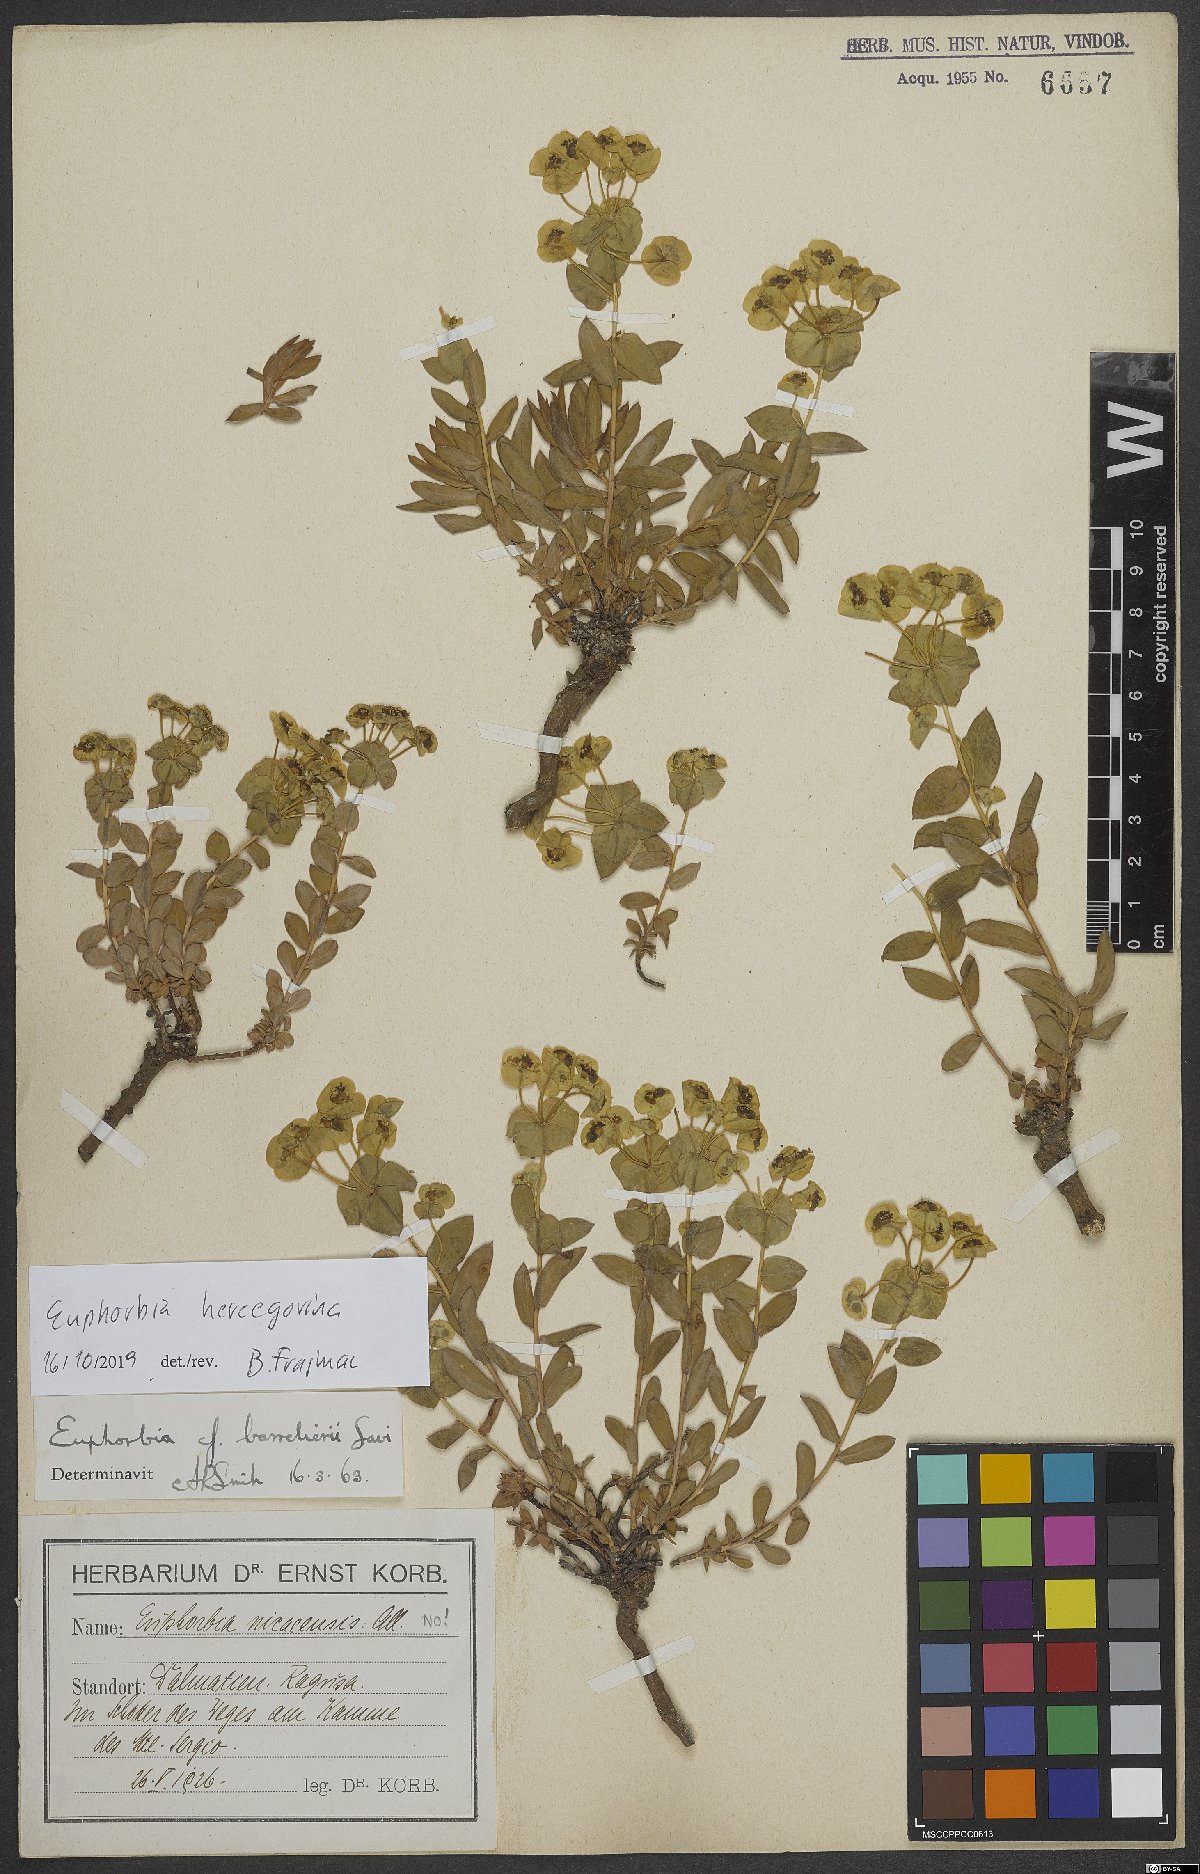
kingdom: Plantae
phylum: Tracheophyta
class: Magnoliopsida
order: Malpighiales
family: Euphorbiaceae
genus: Euphorbia
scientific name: Euphorbia barrelieri
